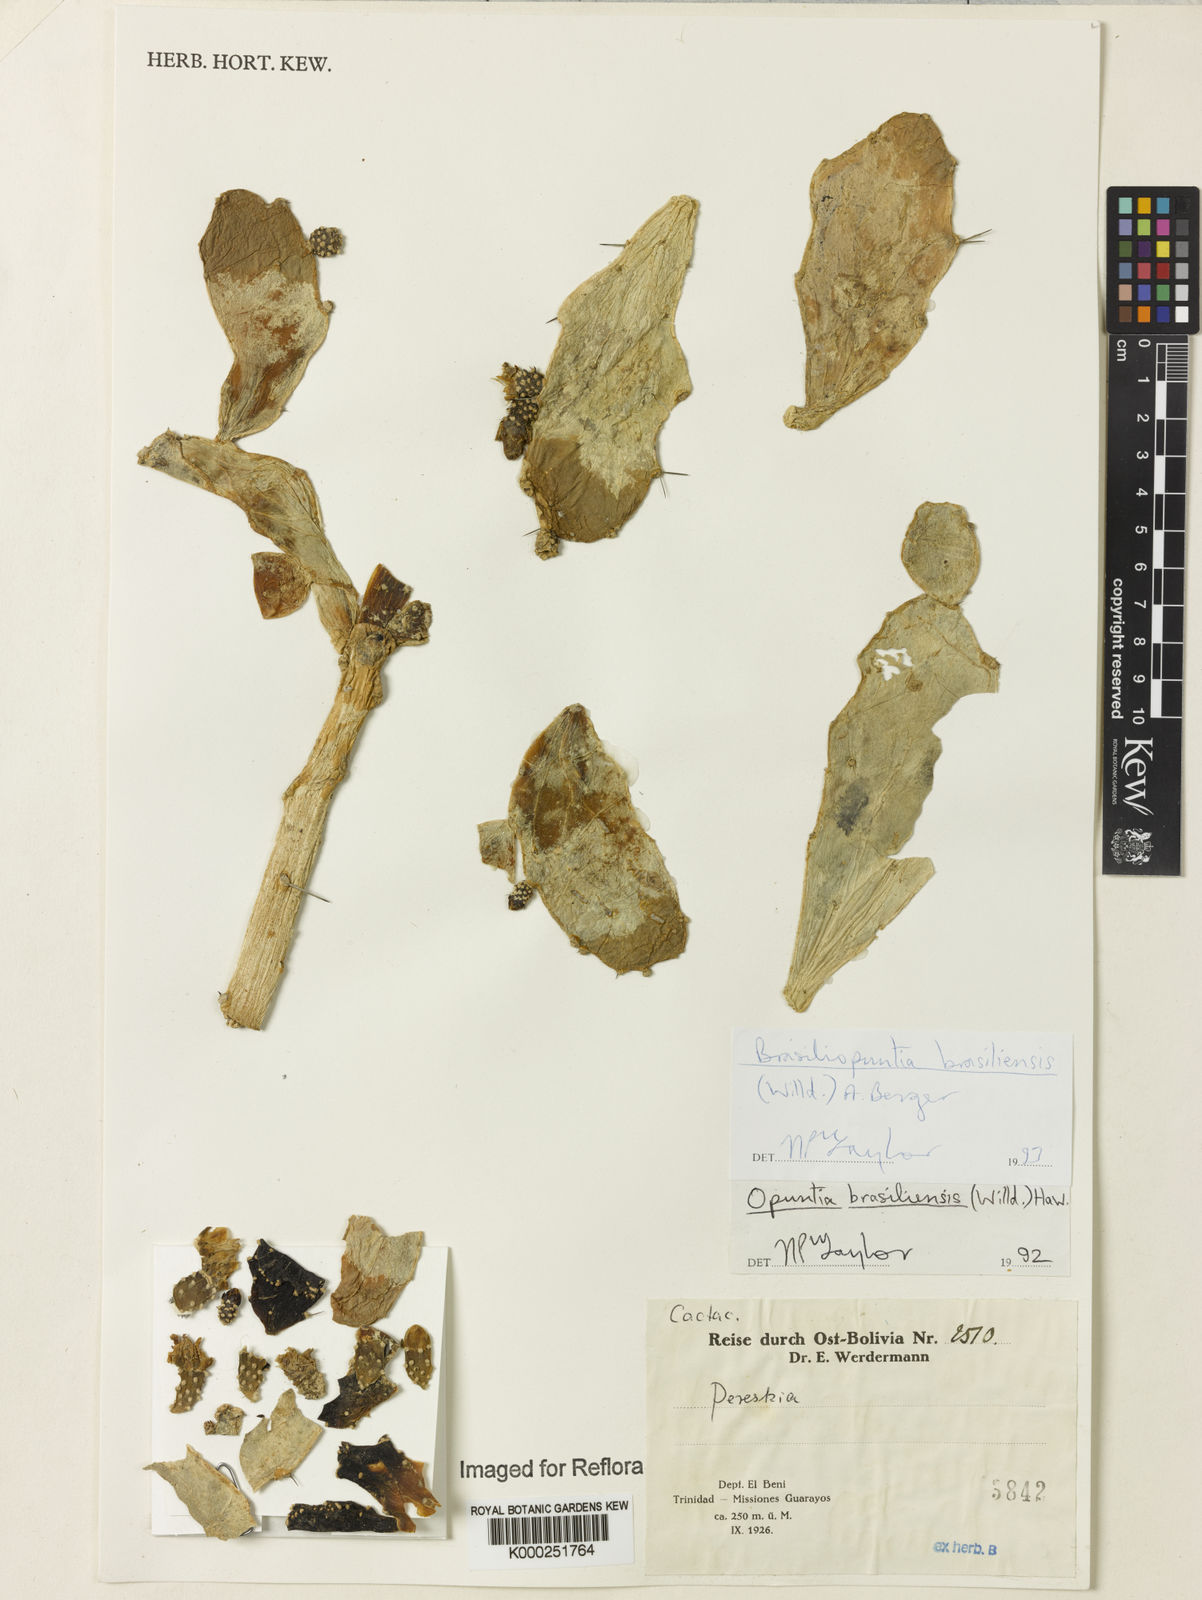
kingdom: Plantae
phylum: Tracheophyta
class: Magnoliopsida
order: Caryophyllales
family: Cactaceae
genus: Brasiliopuntia
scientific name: Brasiliopuntia brasiliensis
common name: Brazilian pricklypear
